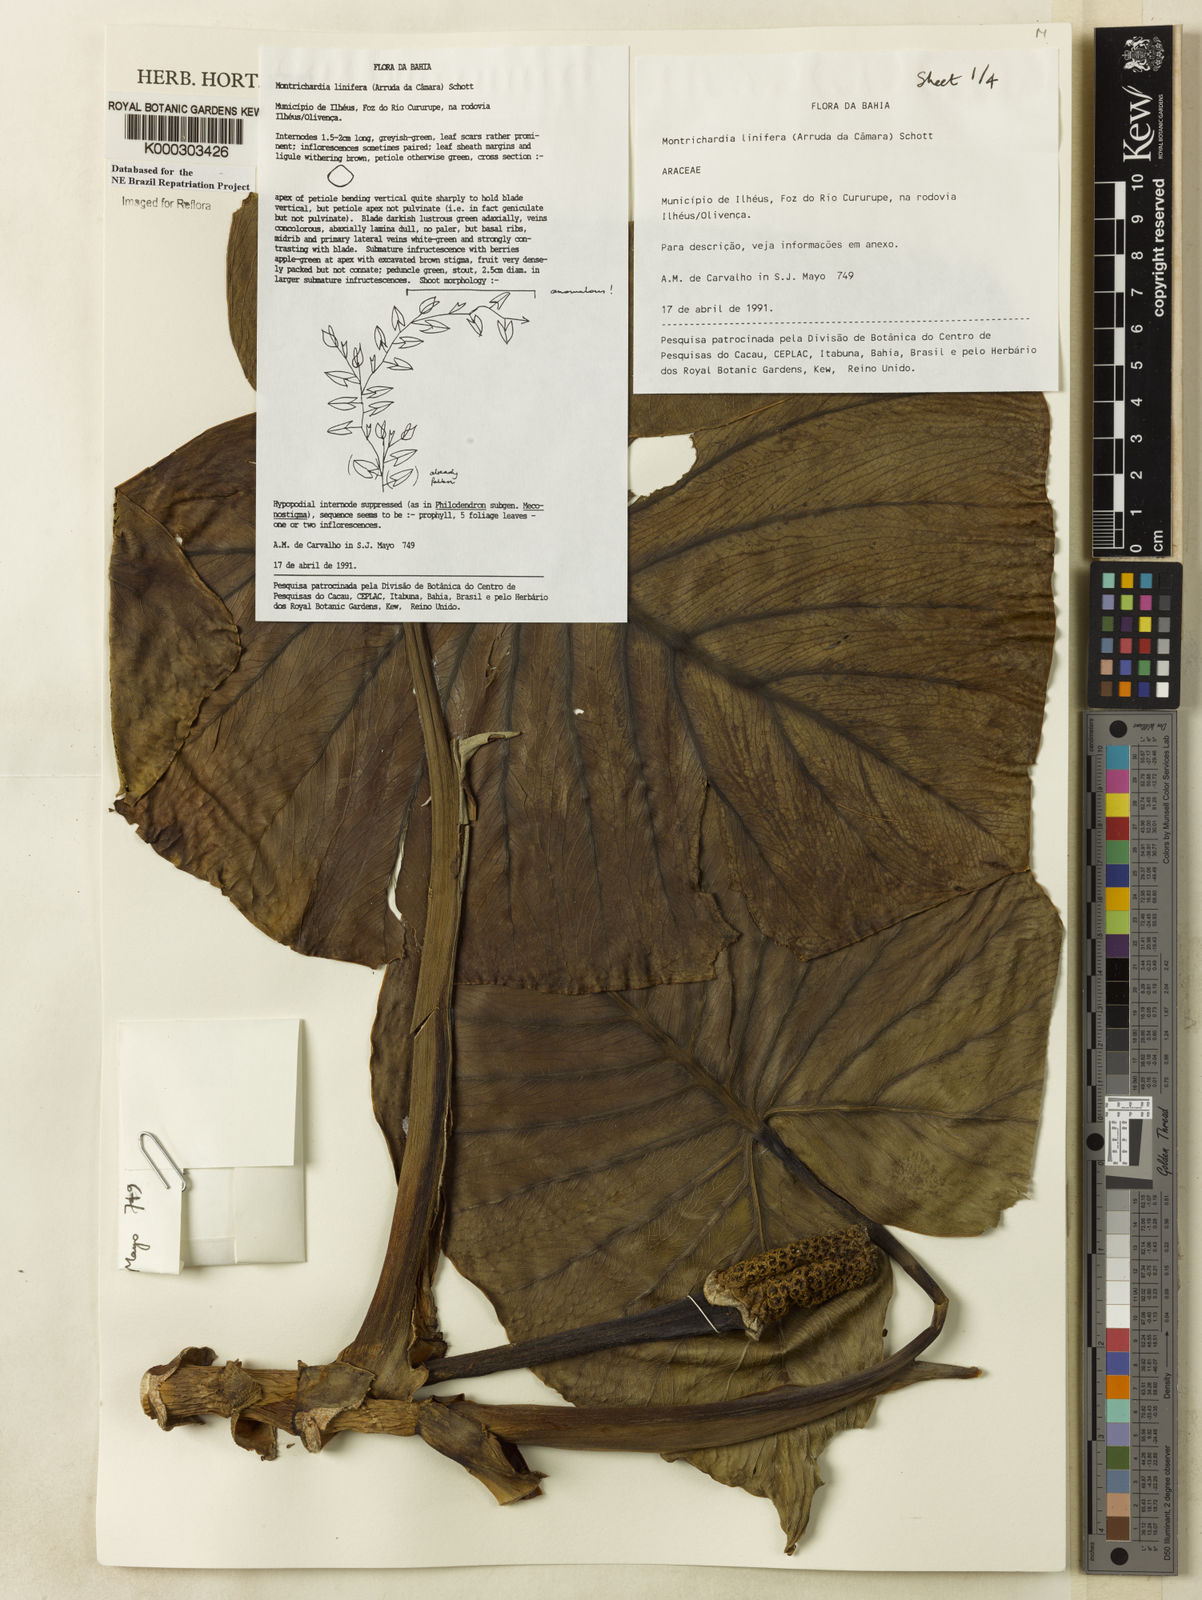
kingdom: Plantae
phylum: Tracheophyta
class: Liliopsida
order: Alismatales
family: Araceae
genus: Montrichardia
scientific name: Montrichardia linifera
